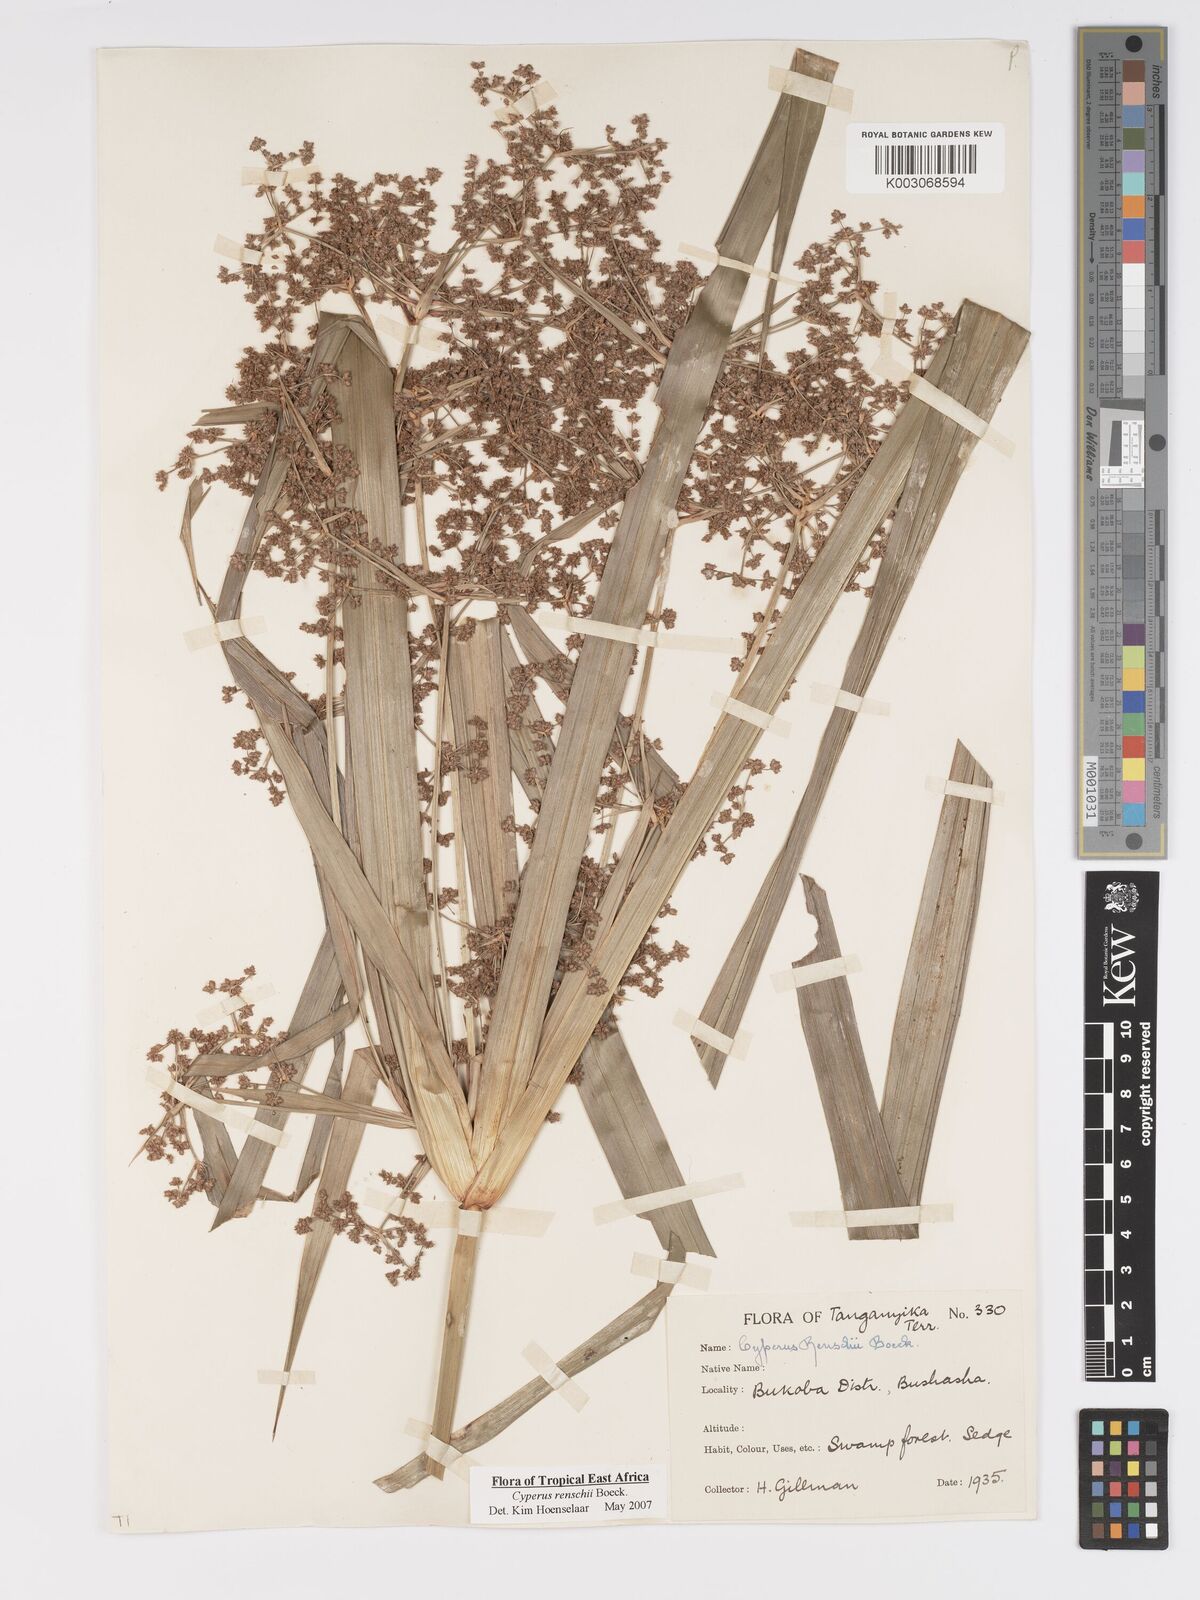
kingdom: Plantae
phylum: Tracheophyta
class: Liliopsida
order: Poales
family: Cyperaceae
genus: Cyperus
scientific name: Cyperus renschii
